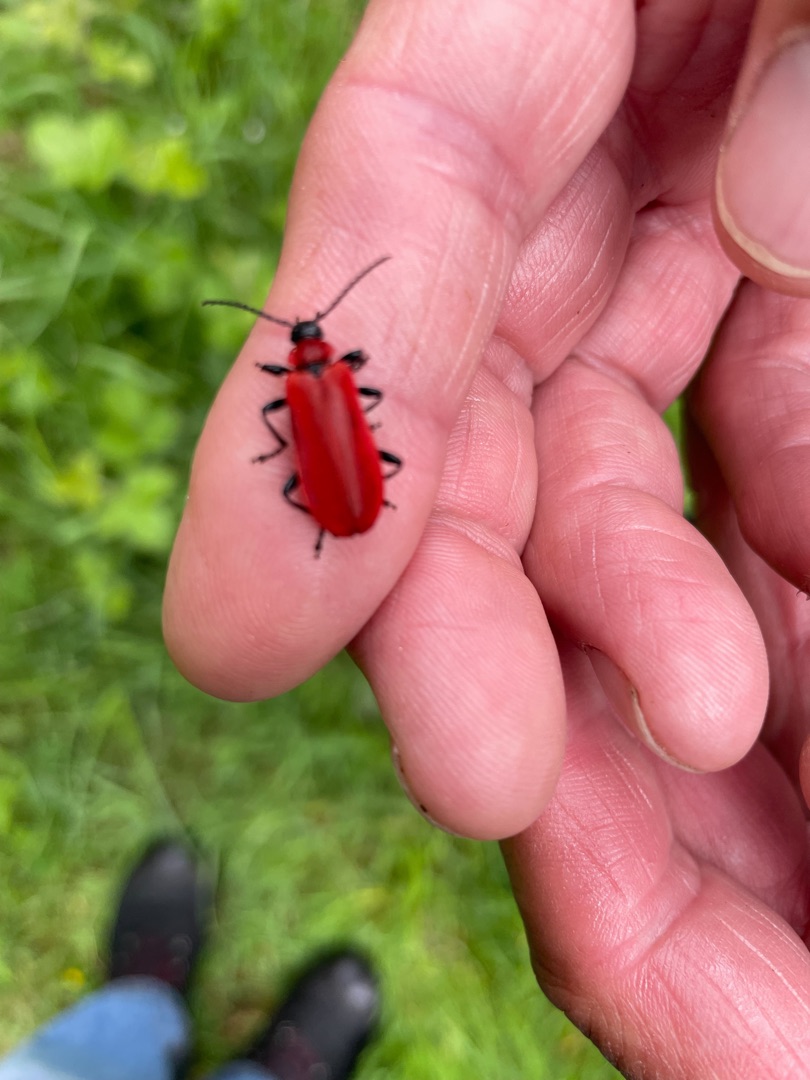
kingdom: Animalia
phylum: Arthropoda
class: Insecta
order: Coleoptera
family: Pyrochroidae
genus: Pyrochroa
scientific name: Pyrochroa coccinea
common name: Sorthovedet kardinalbille
